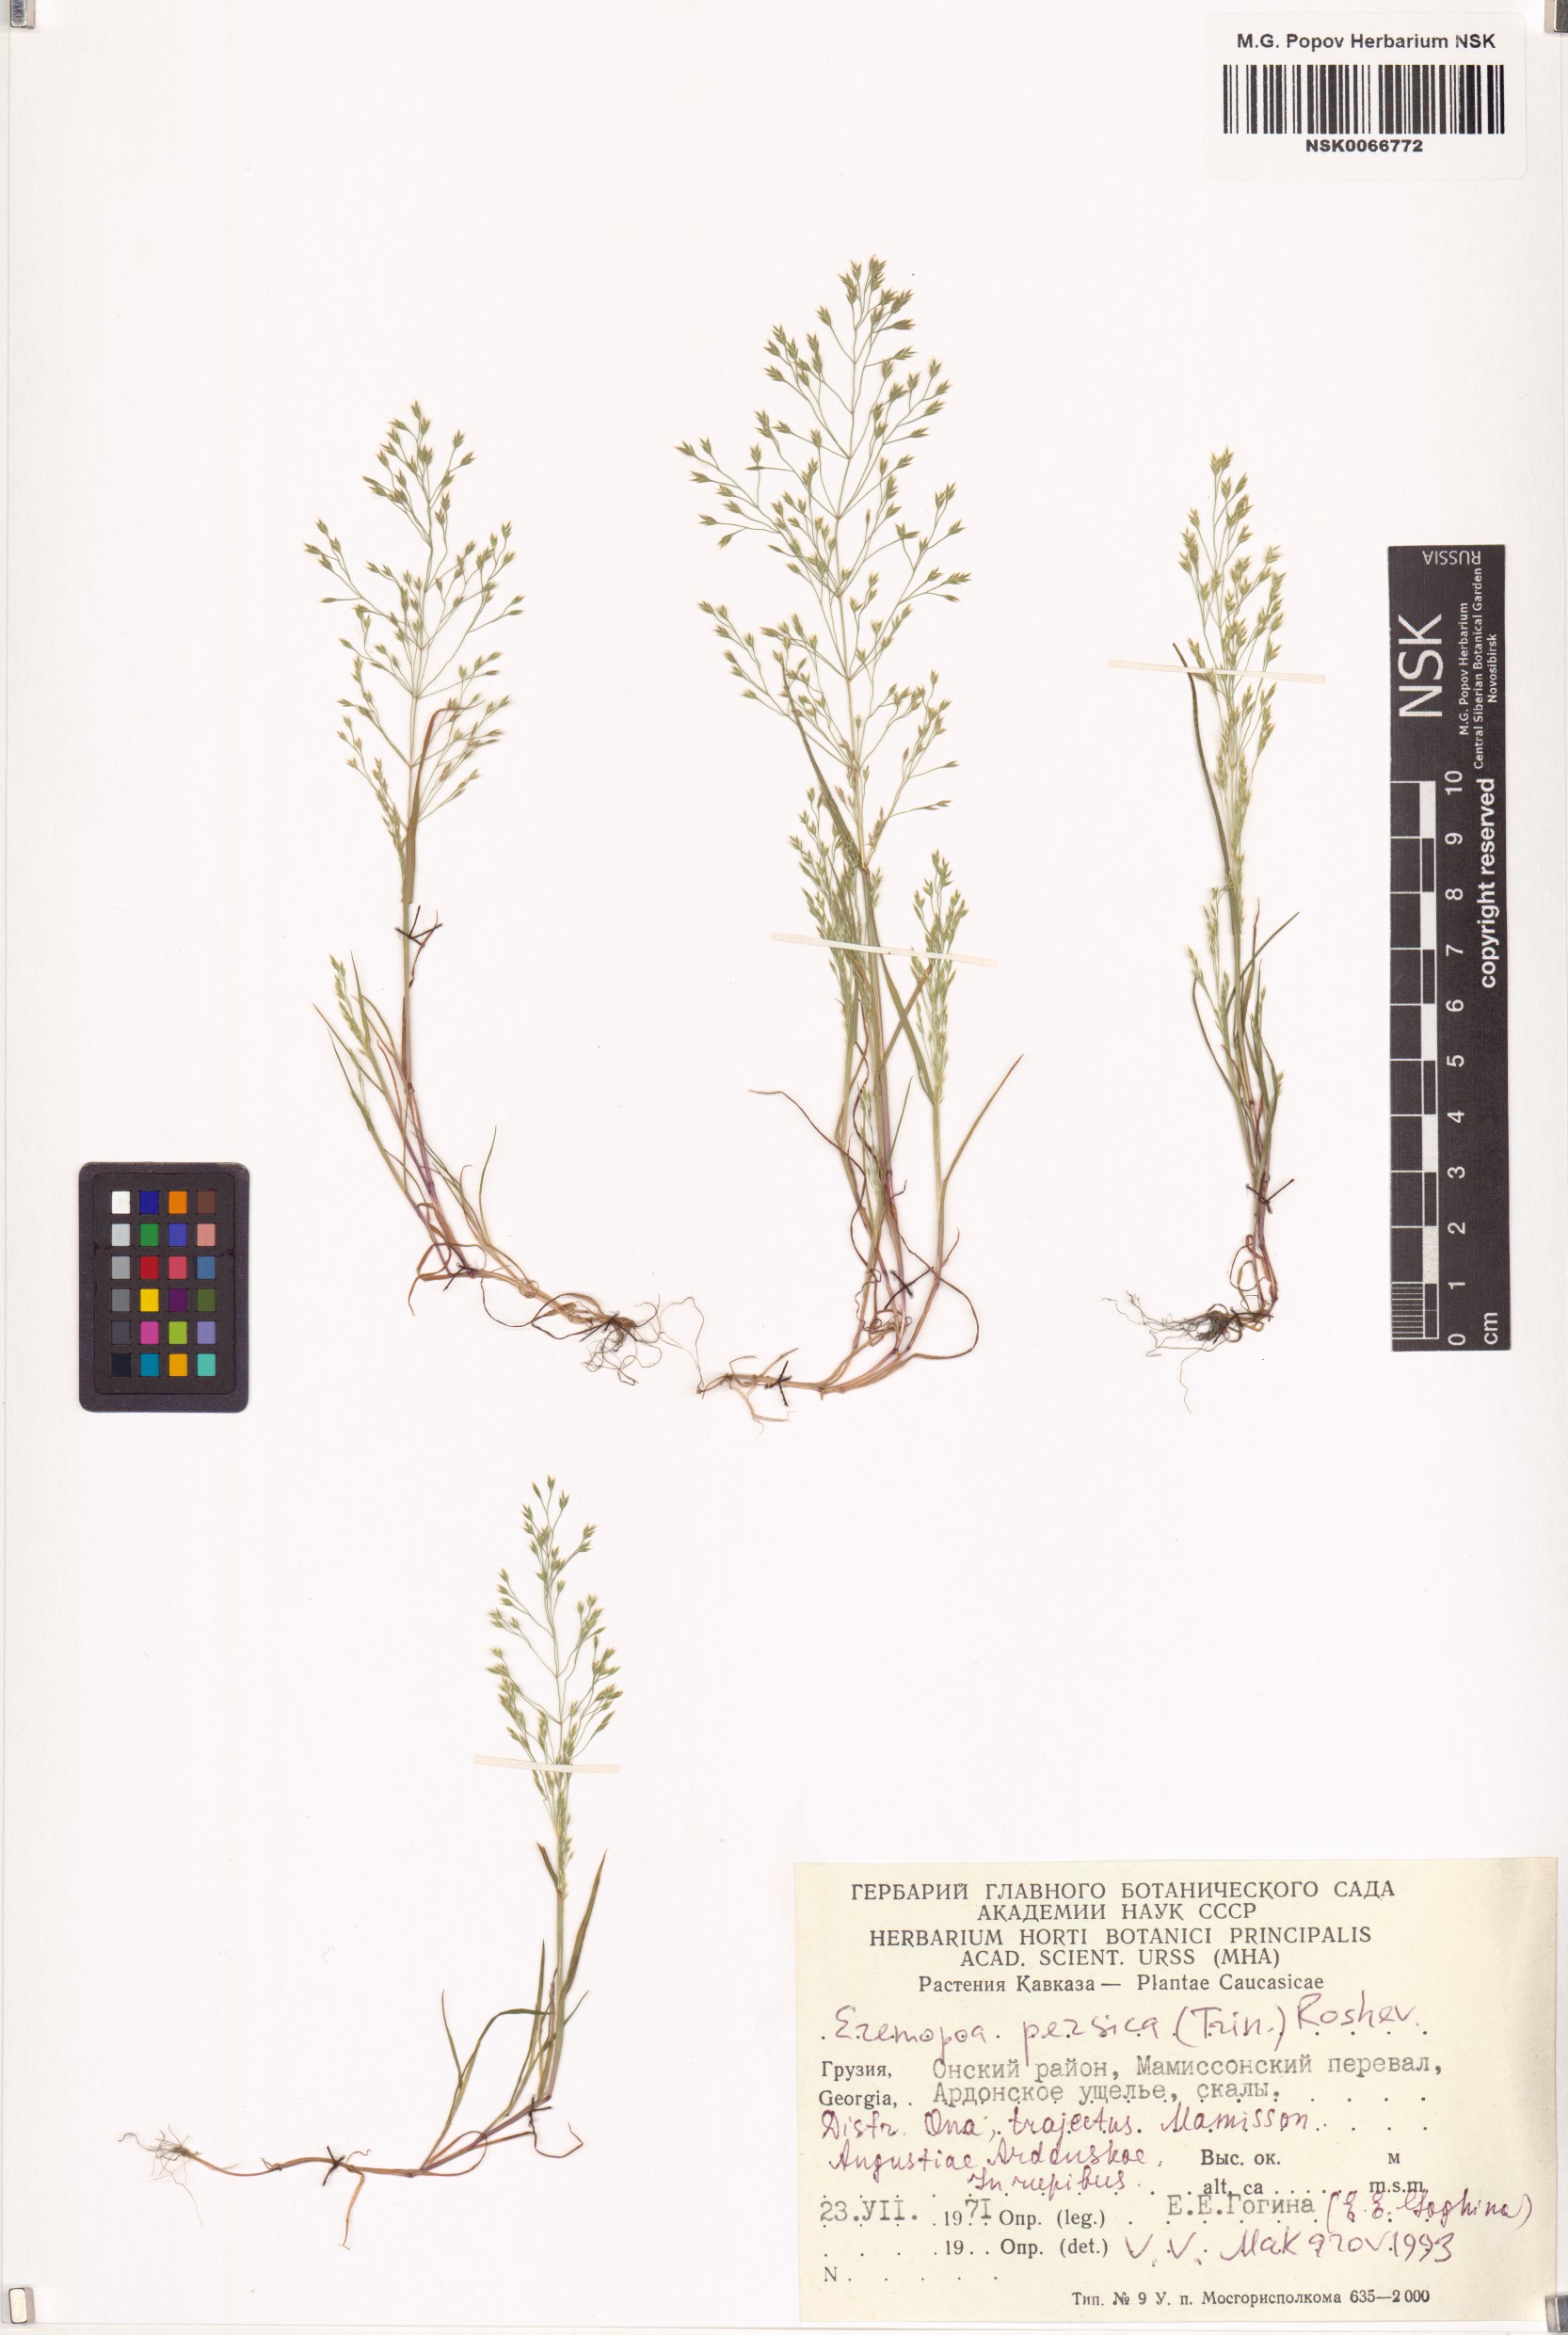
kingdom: Plantae
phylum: Tracheophyta
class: Liliopsida
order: Poales
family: Poaceae
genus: Poa
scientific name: Poa persica
